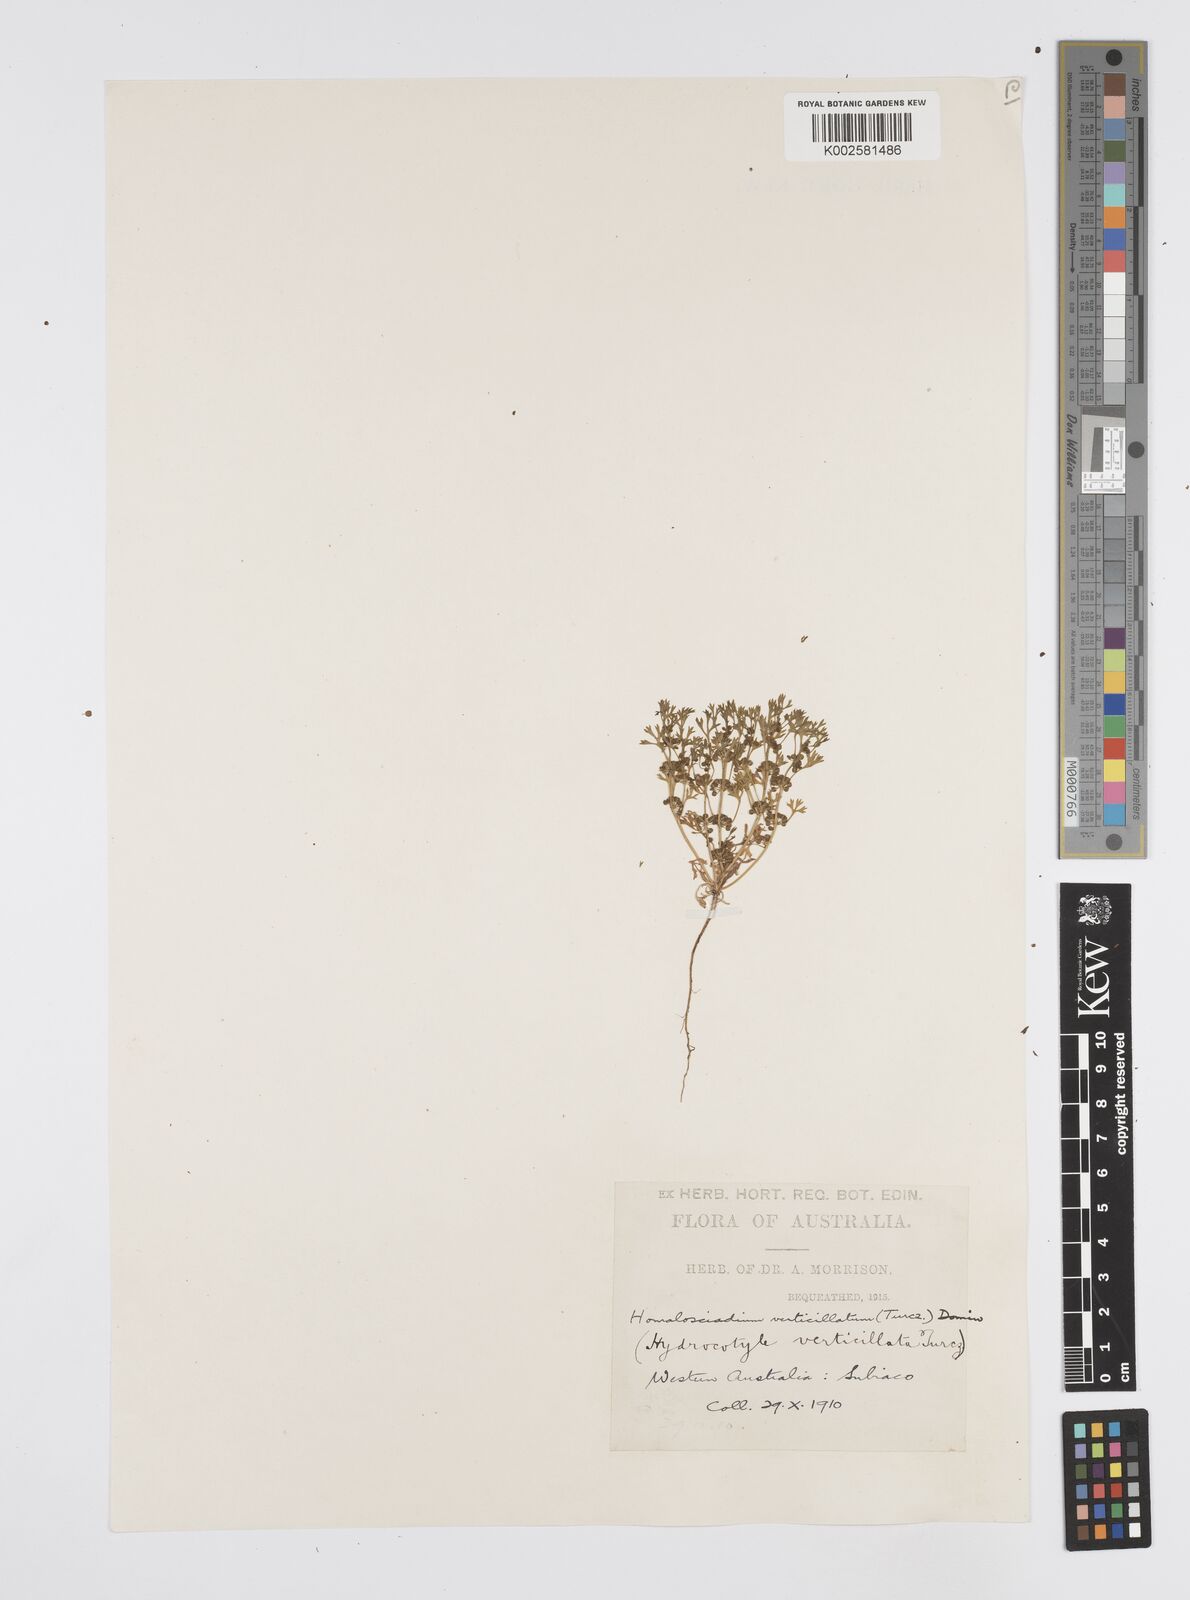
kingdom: Plantae
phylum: Tracheophyta
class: Magnoliopsida
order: Apiales
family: Apiaceae
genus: Homalosciadium
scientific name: Homalosciadium homalocarpum
